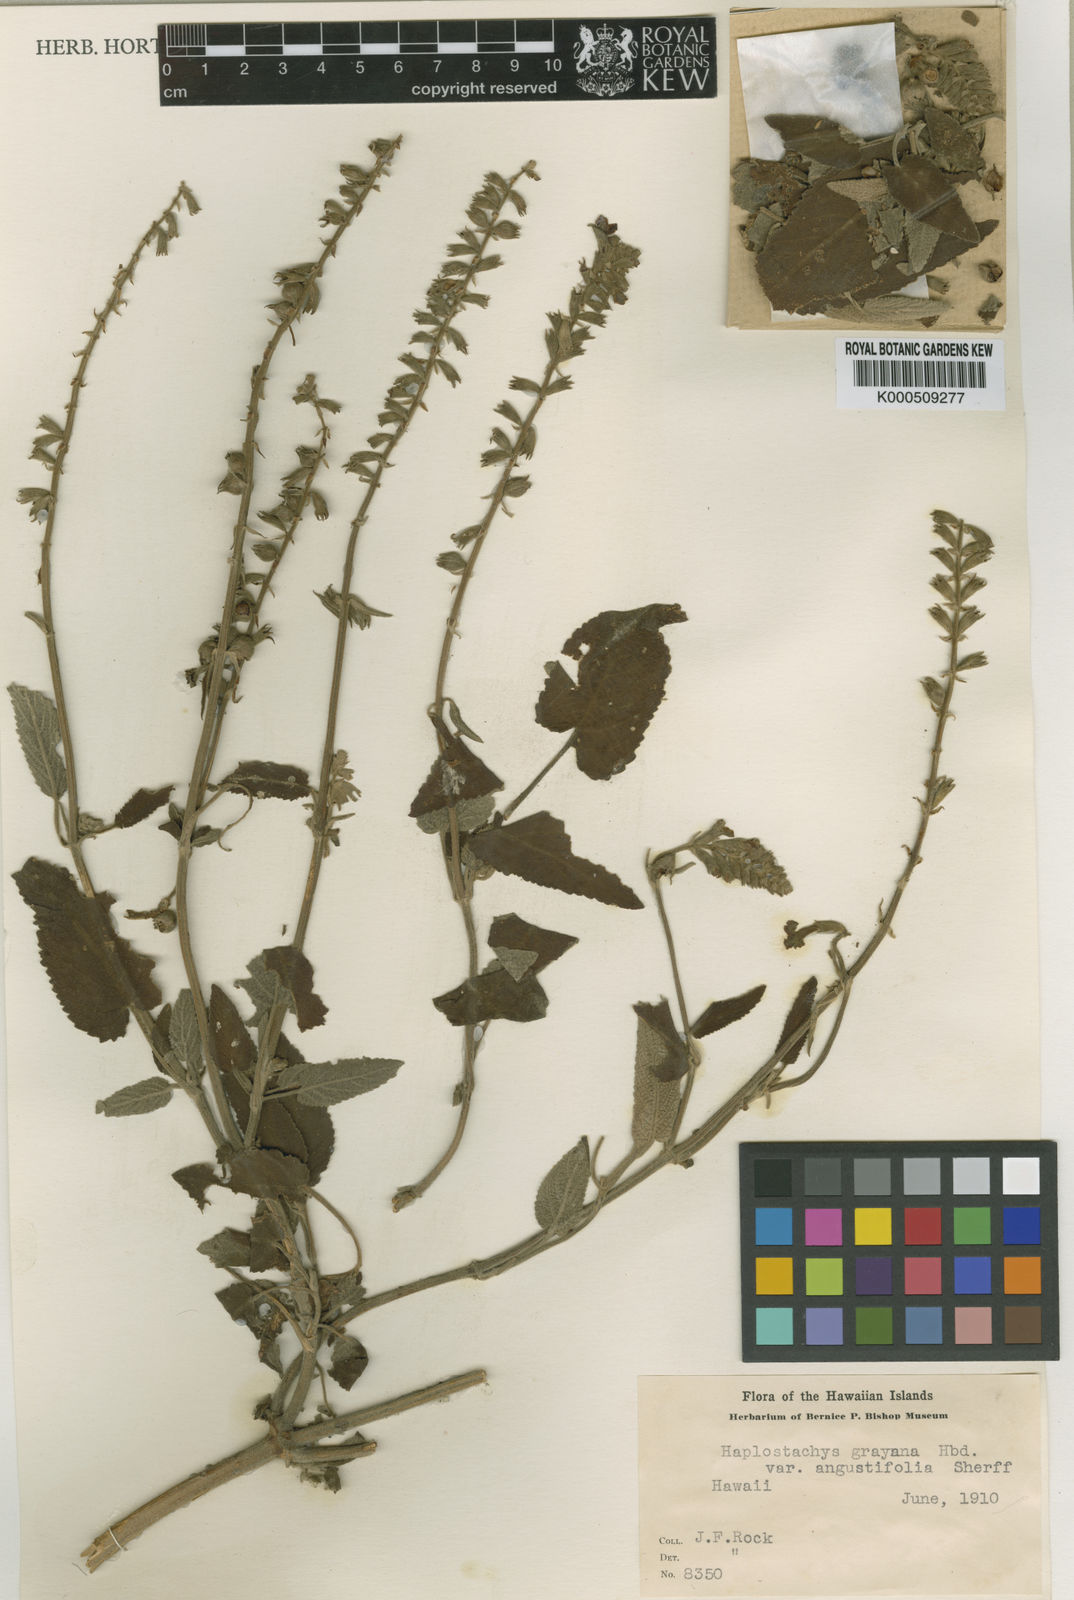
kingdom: Plantae
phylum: Tracheophyta
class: Magnoliopsida
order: Lamiales
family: Lamiaceae
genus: Haplostachys
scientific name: Haplostachys haplostachya
